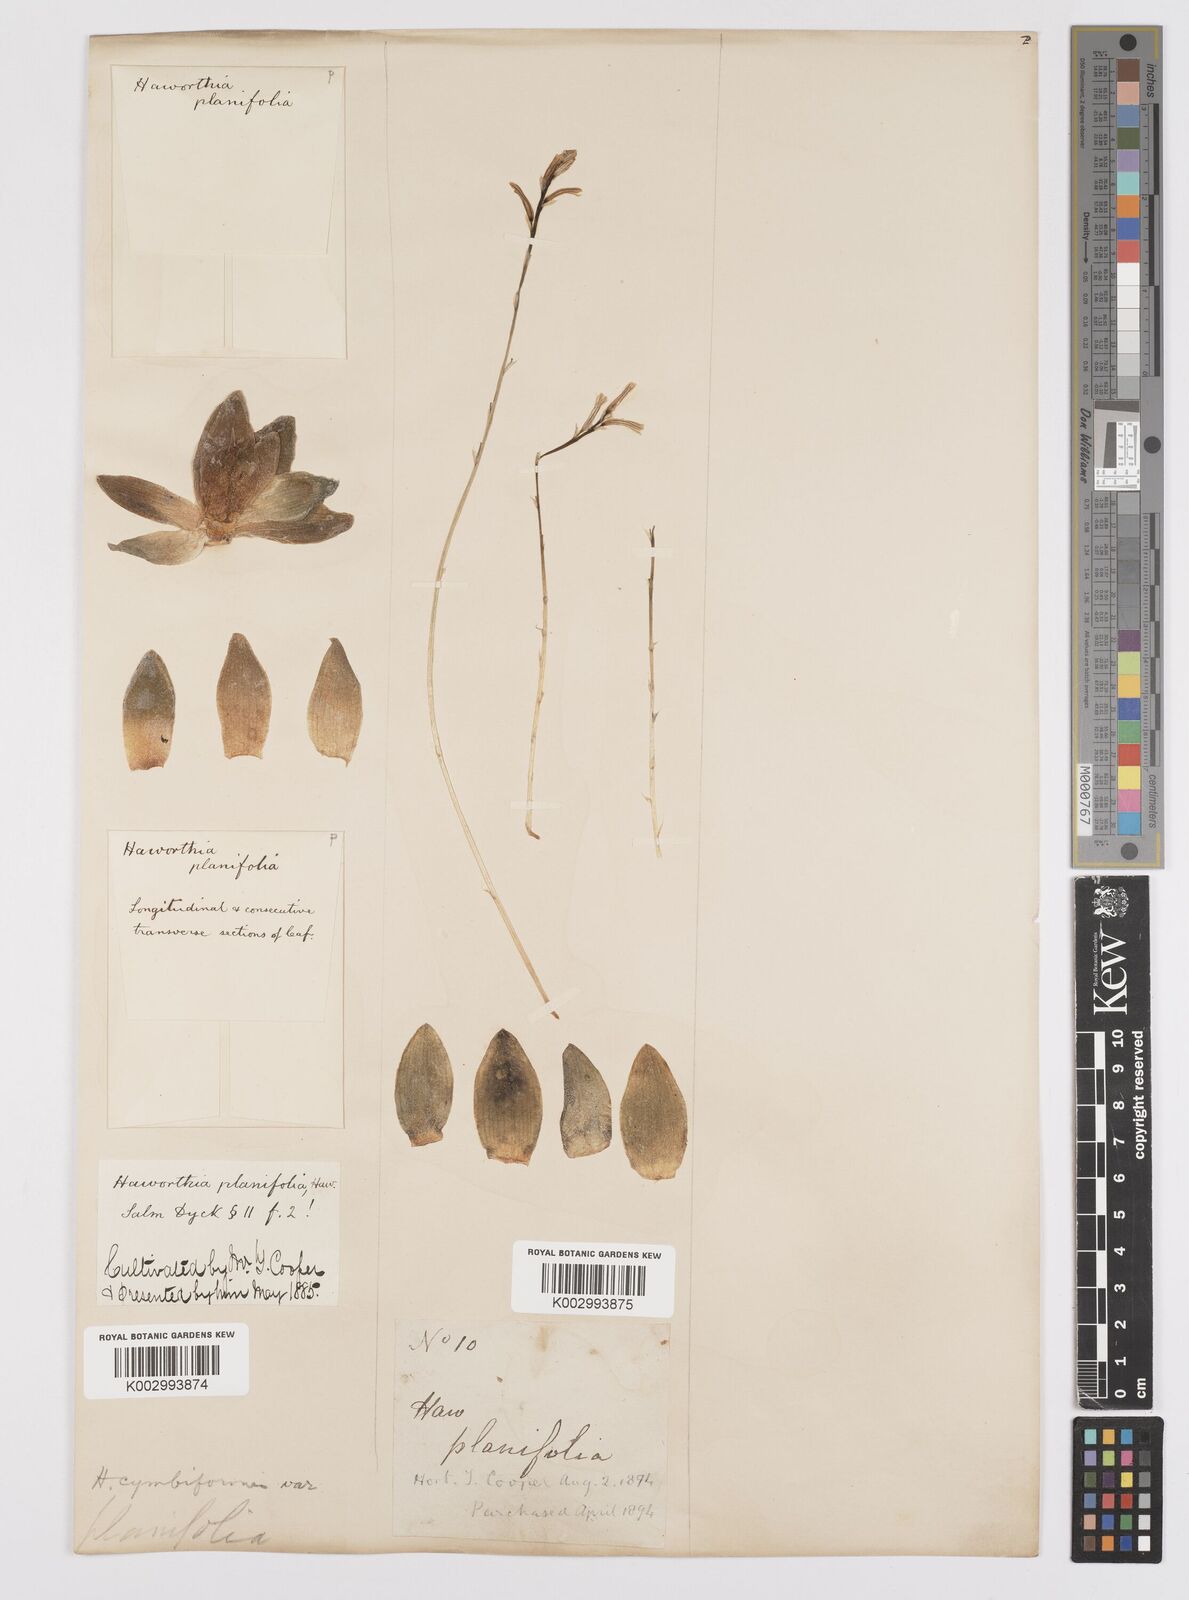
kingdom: Plantae
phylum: Tracheophyta
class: Liliopsida
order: Asparagales
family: Asphodelaceae
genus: Haworthia
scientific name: Haworthia cymbiformis
